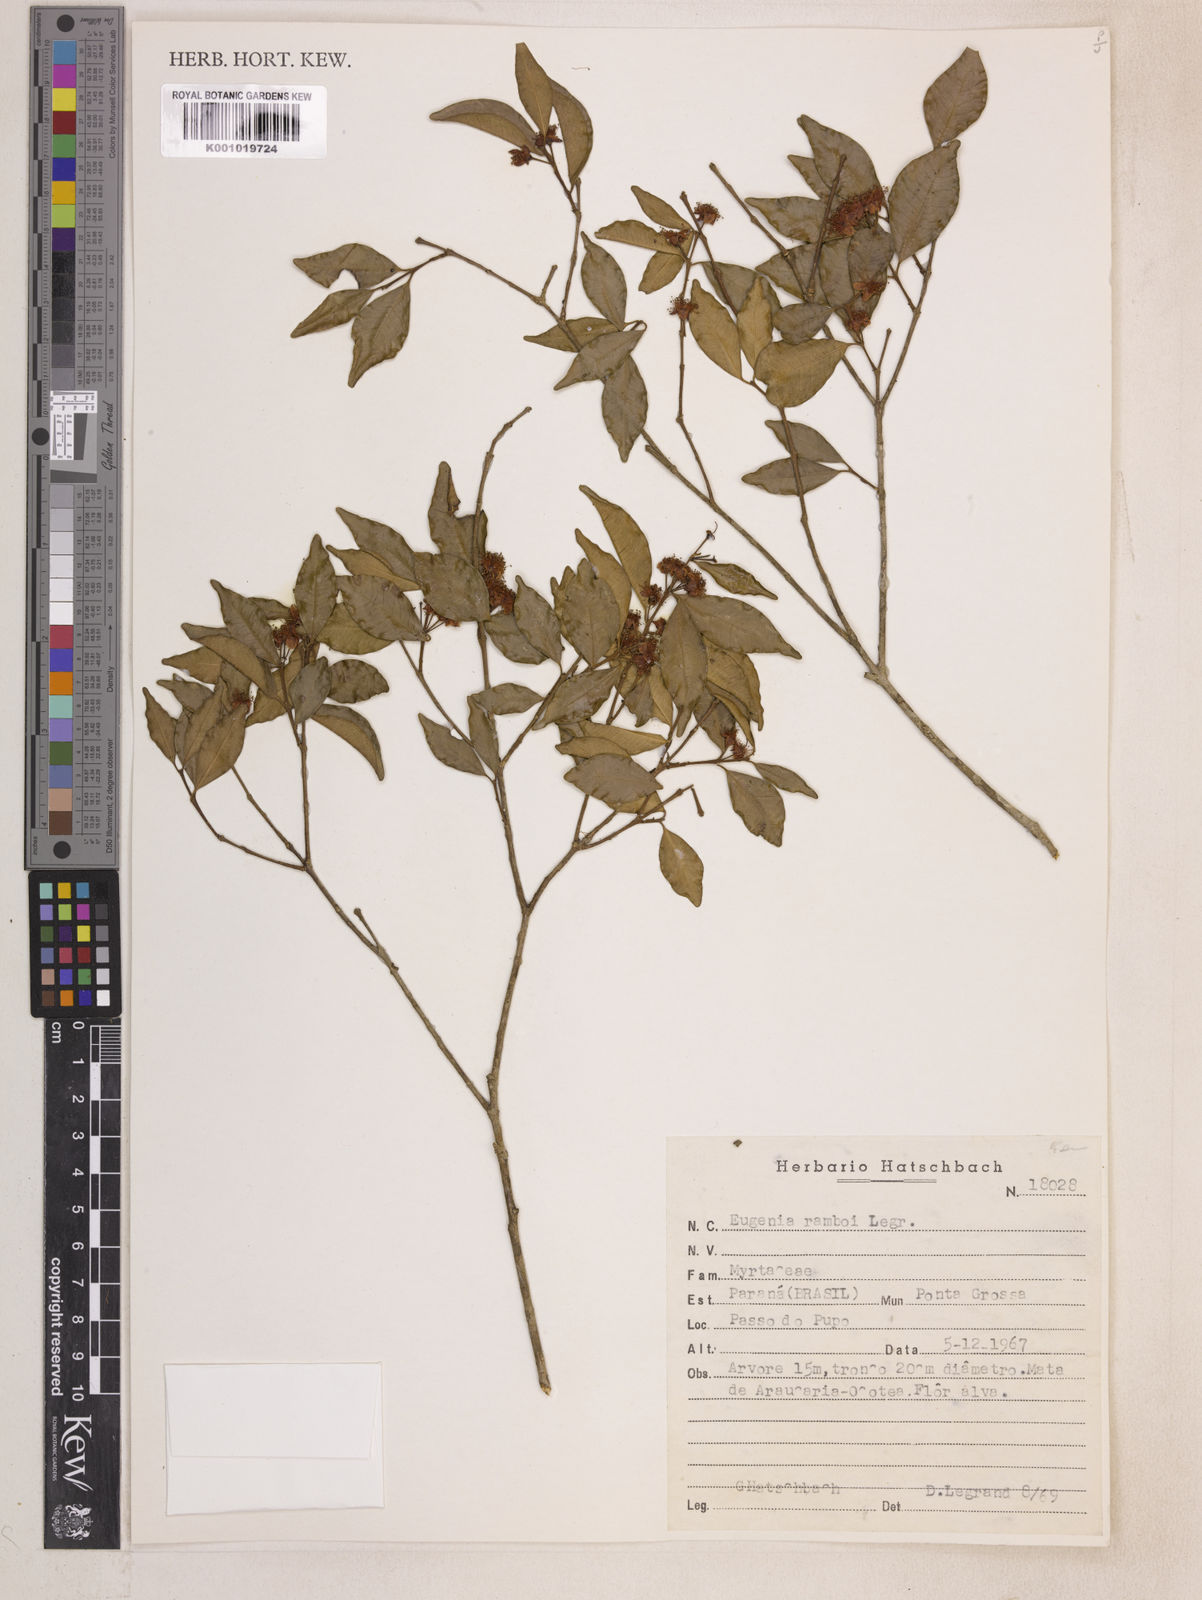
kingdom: Plantae
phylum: Tracheophyta
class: Magnoliopsida
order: Myrtales
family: Myrtaceae
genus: Eugenia
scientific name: Eugenia ramboi
